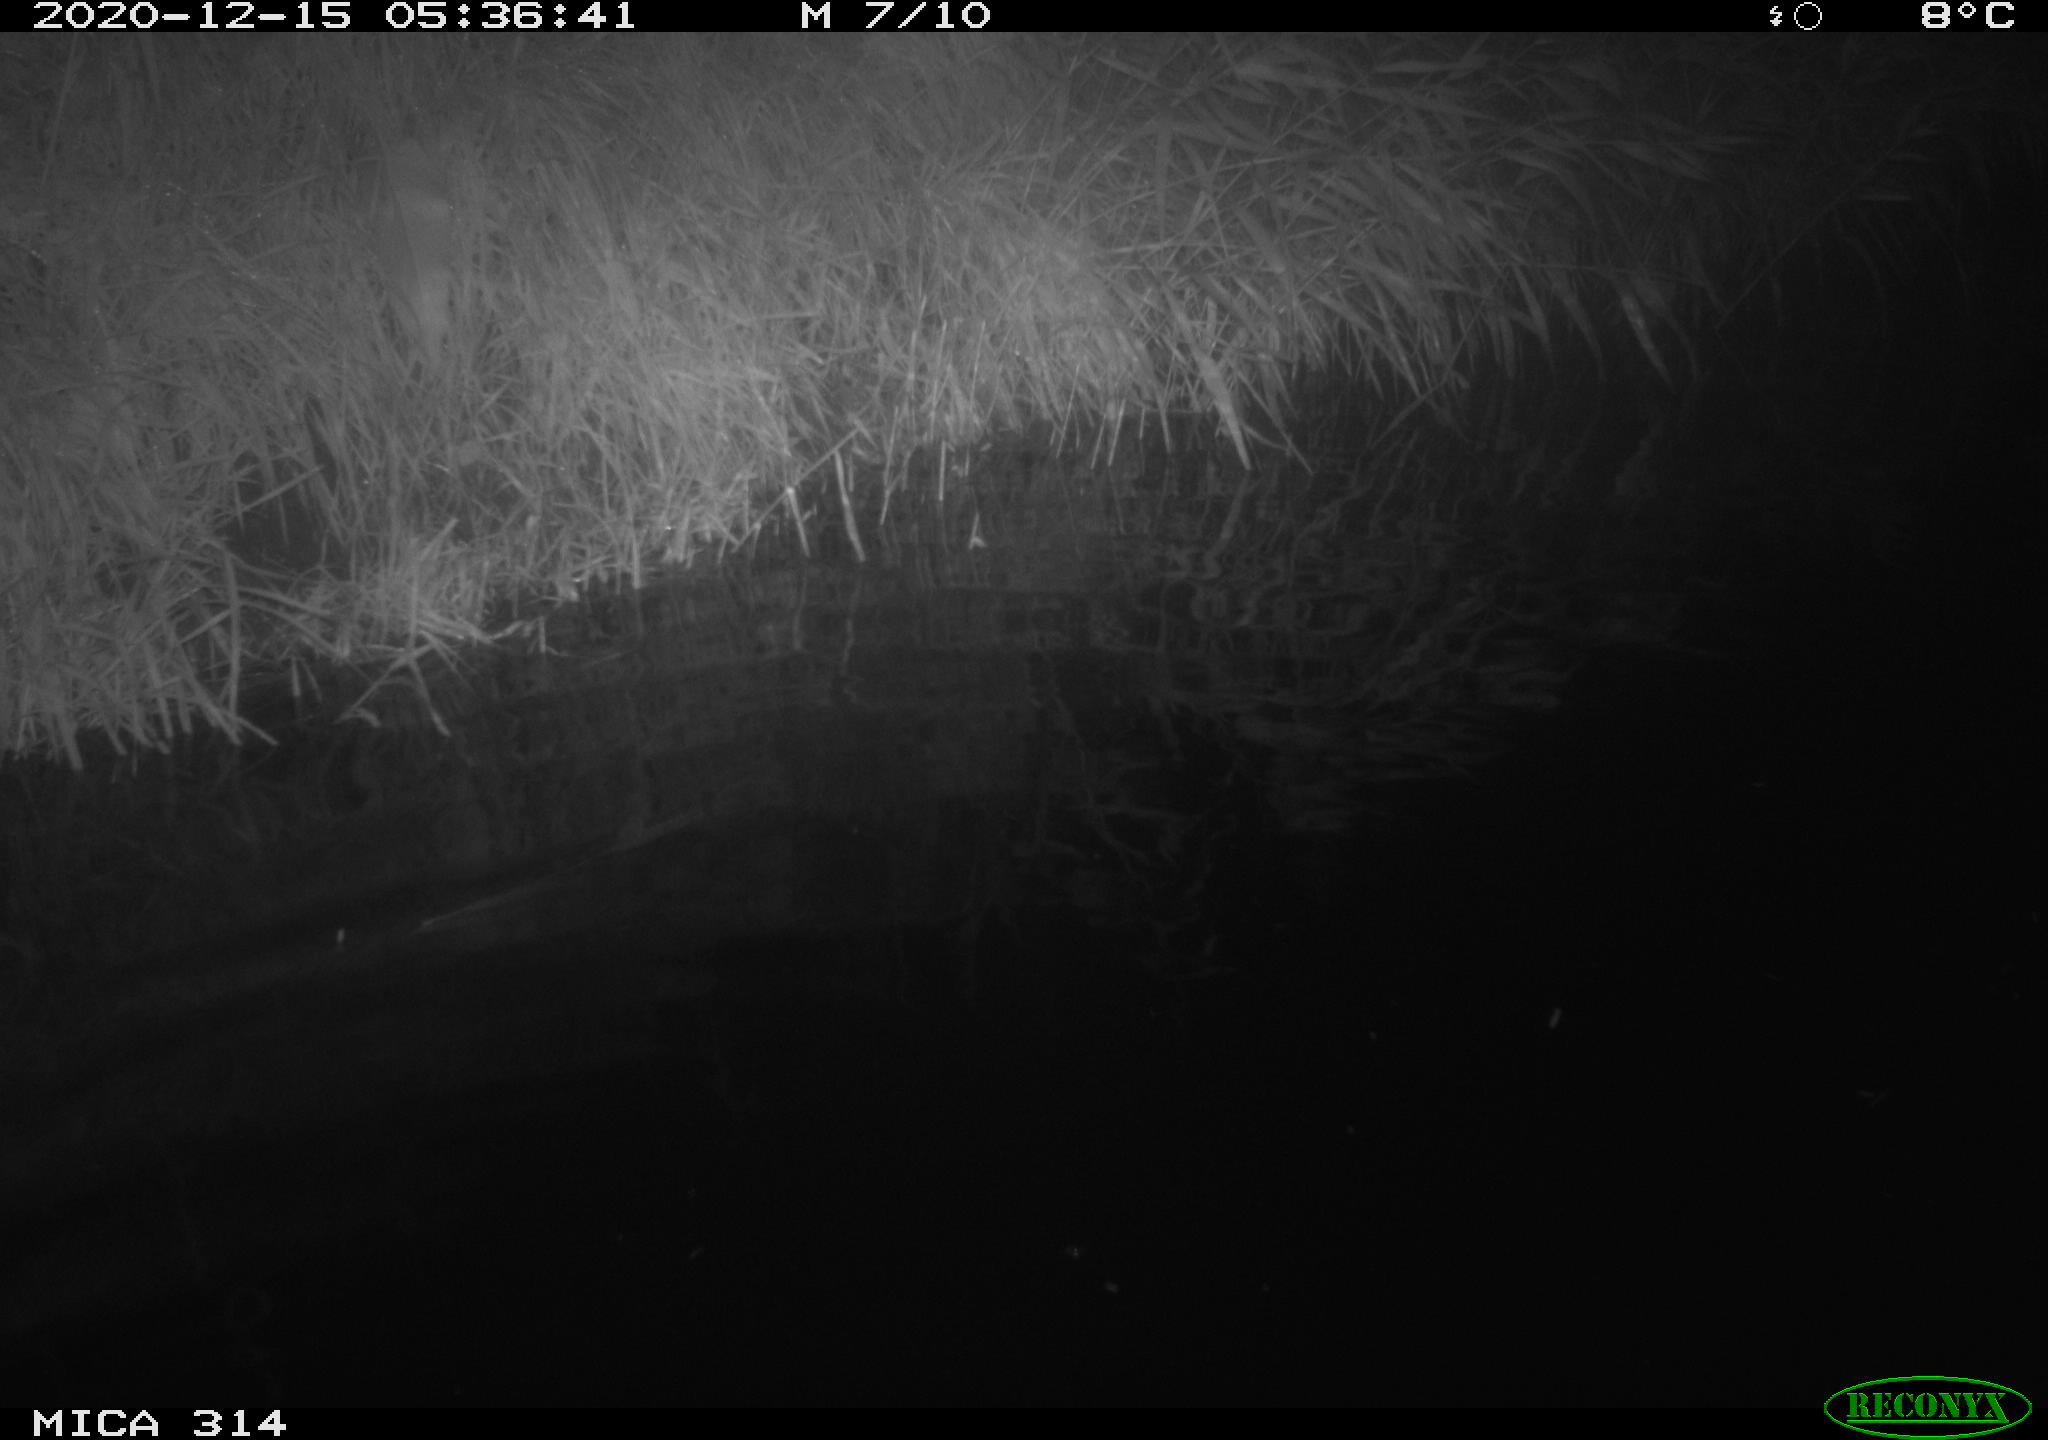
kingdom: Animalia
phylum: Chordata
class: Mammalia
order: Rodentia
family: Muridae
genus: Rattus
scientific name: Rattus norvegicus
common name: Brown rat
